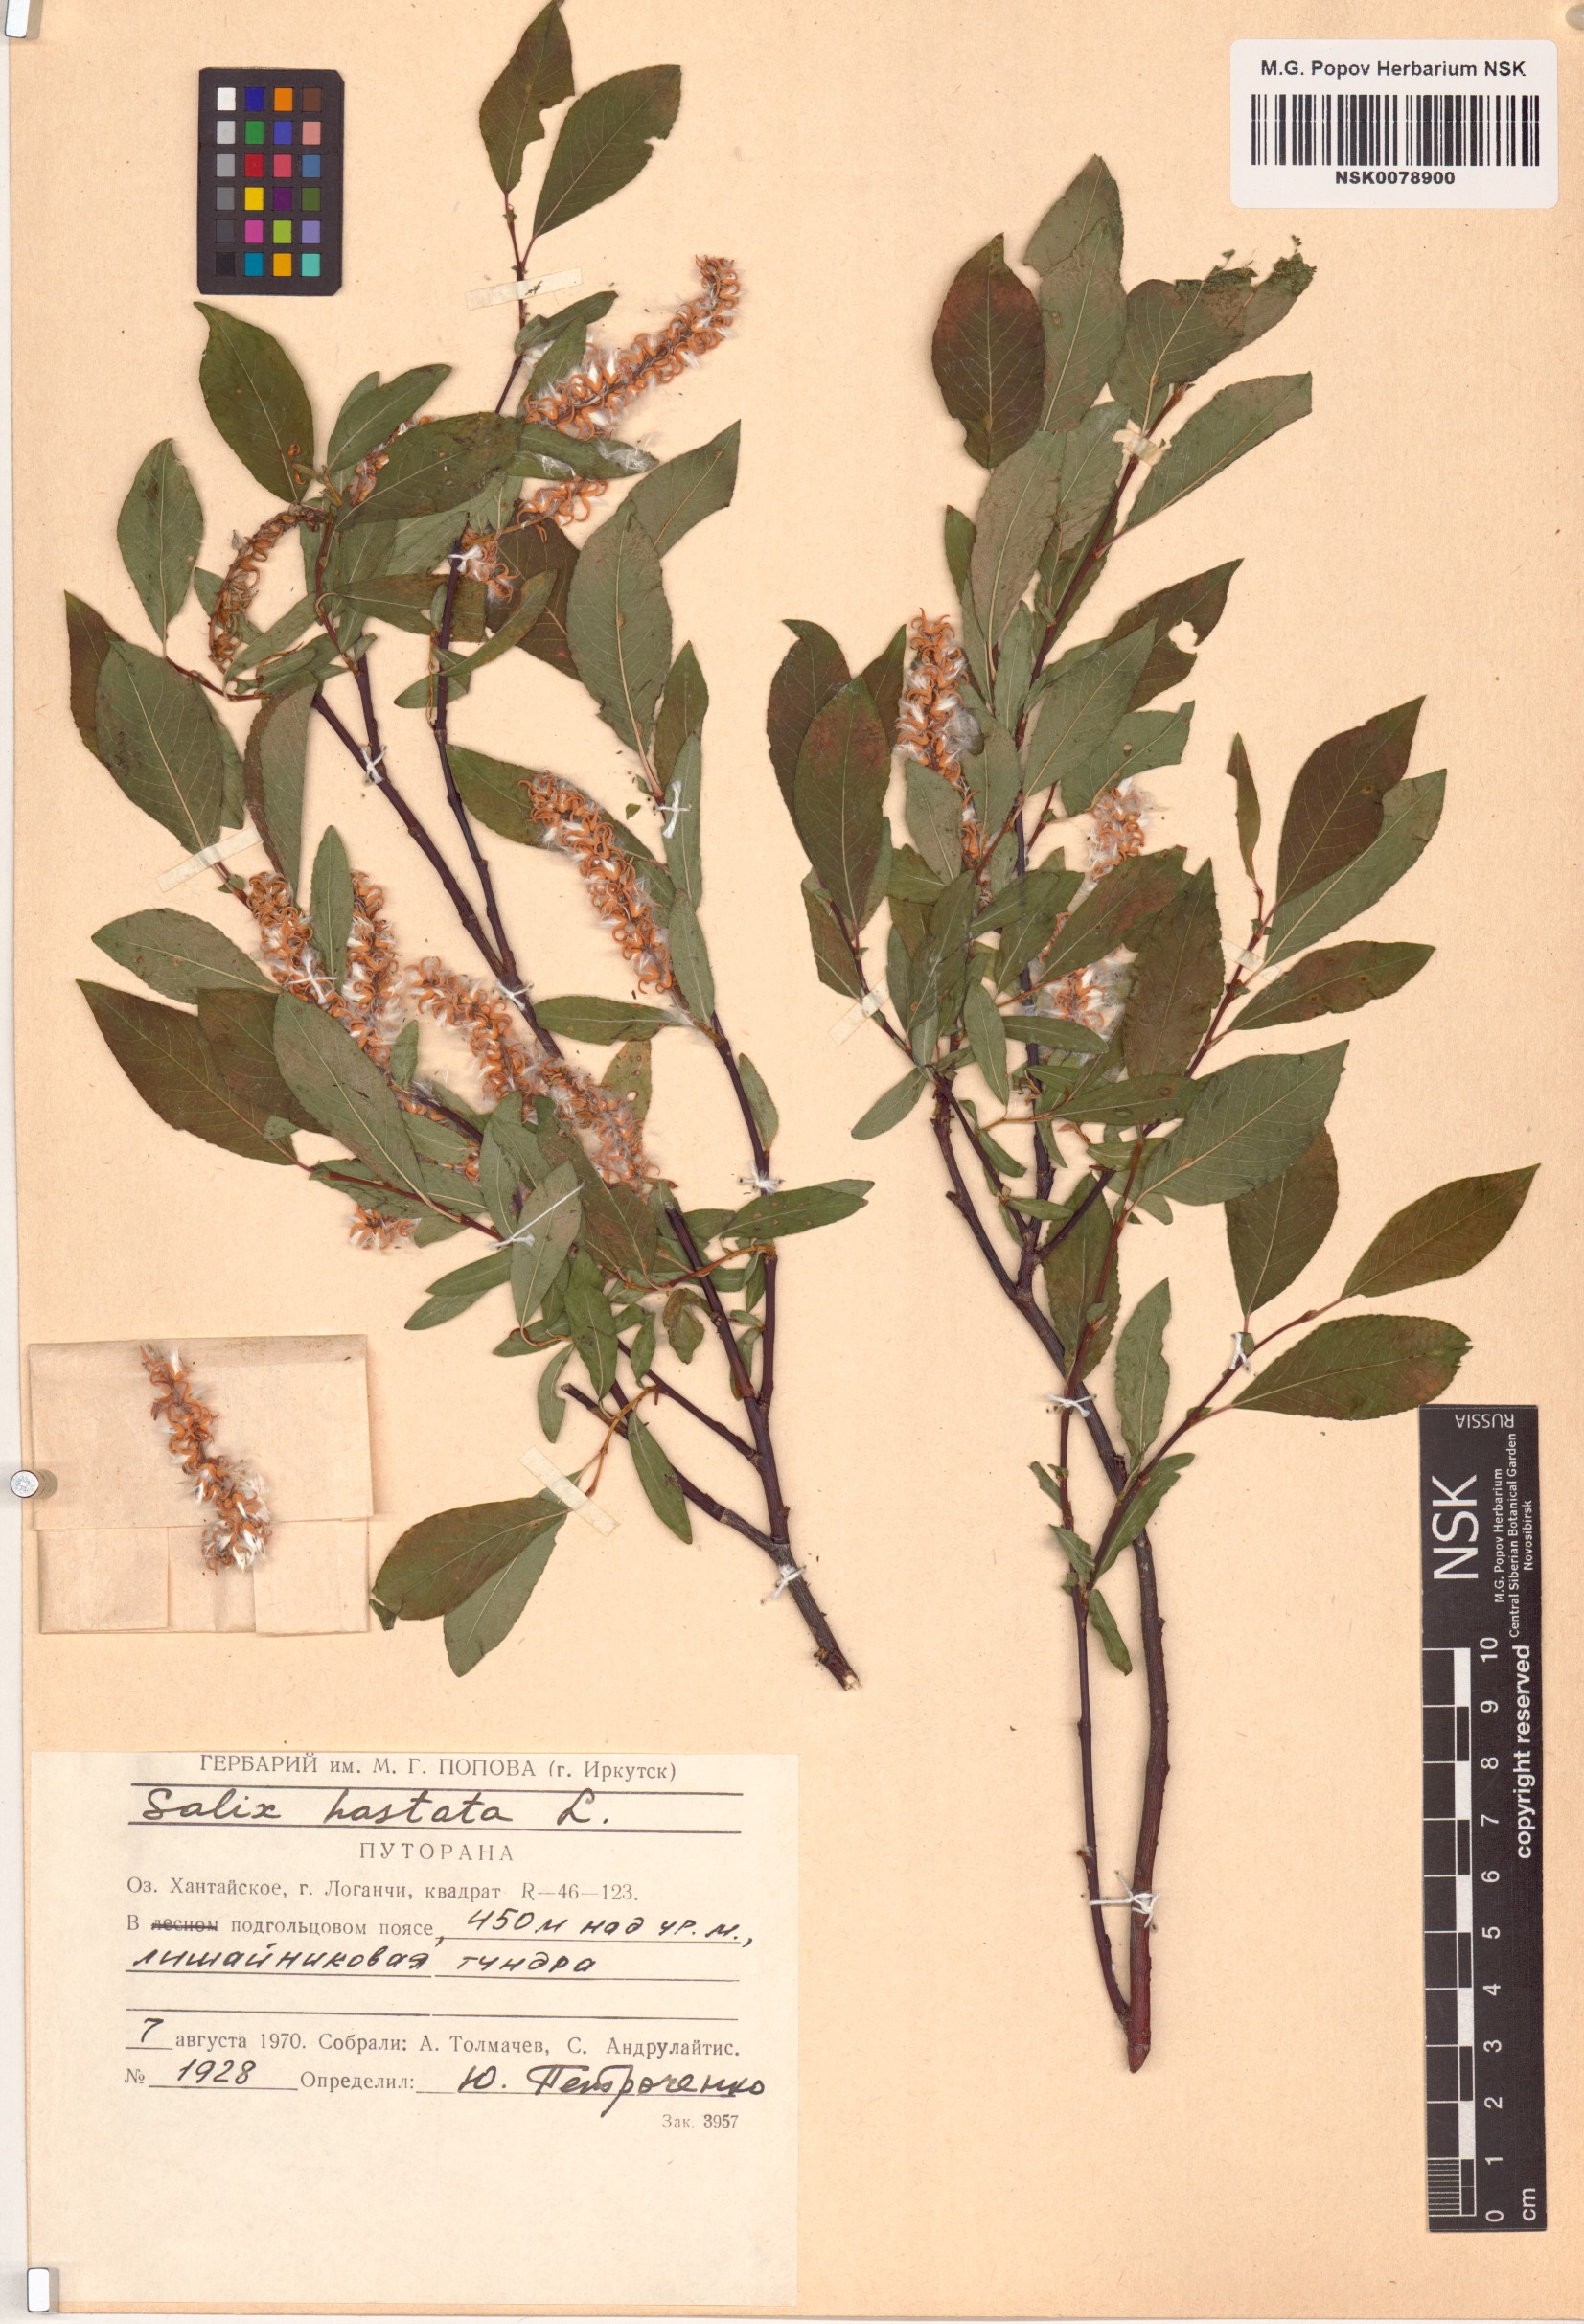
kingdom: Plantae
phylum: Tracheophyta
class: Magnoliopsida
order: Malpighiales
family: Salicaceae
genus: Salix
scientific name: Salix hastata
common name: Halberd willow
